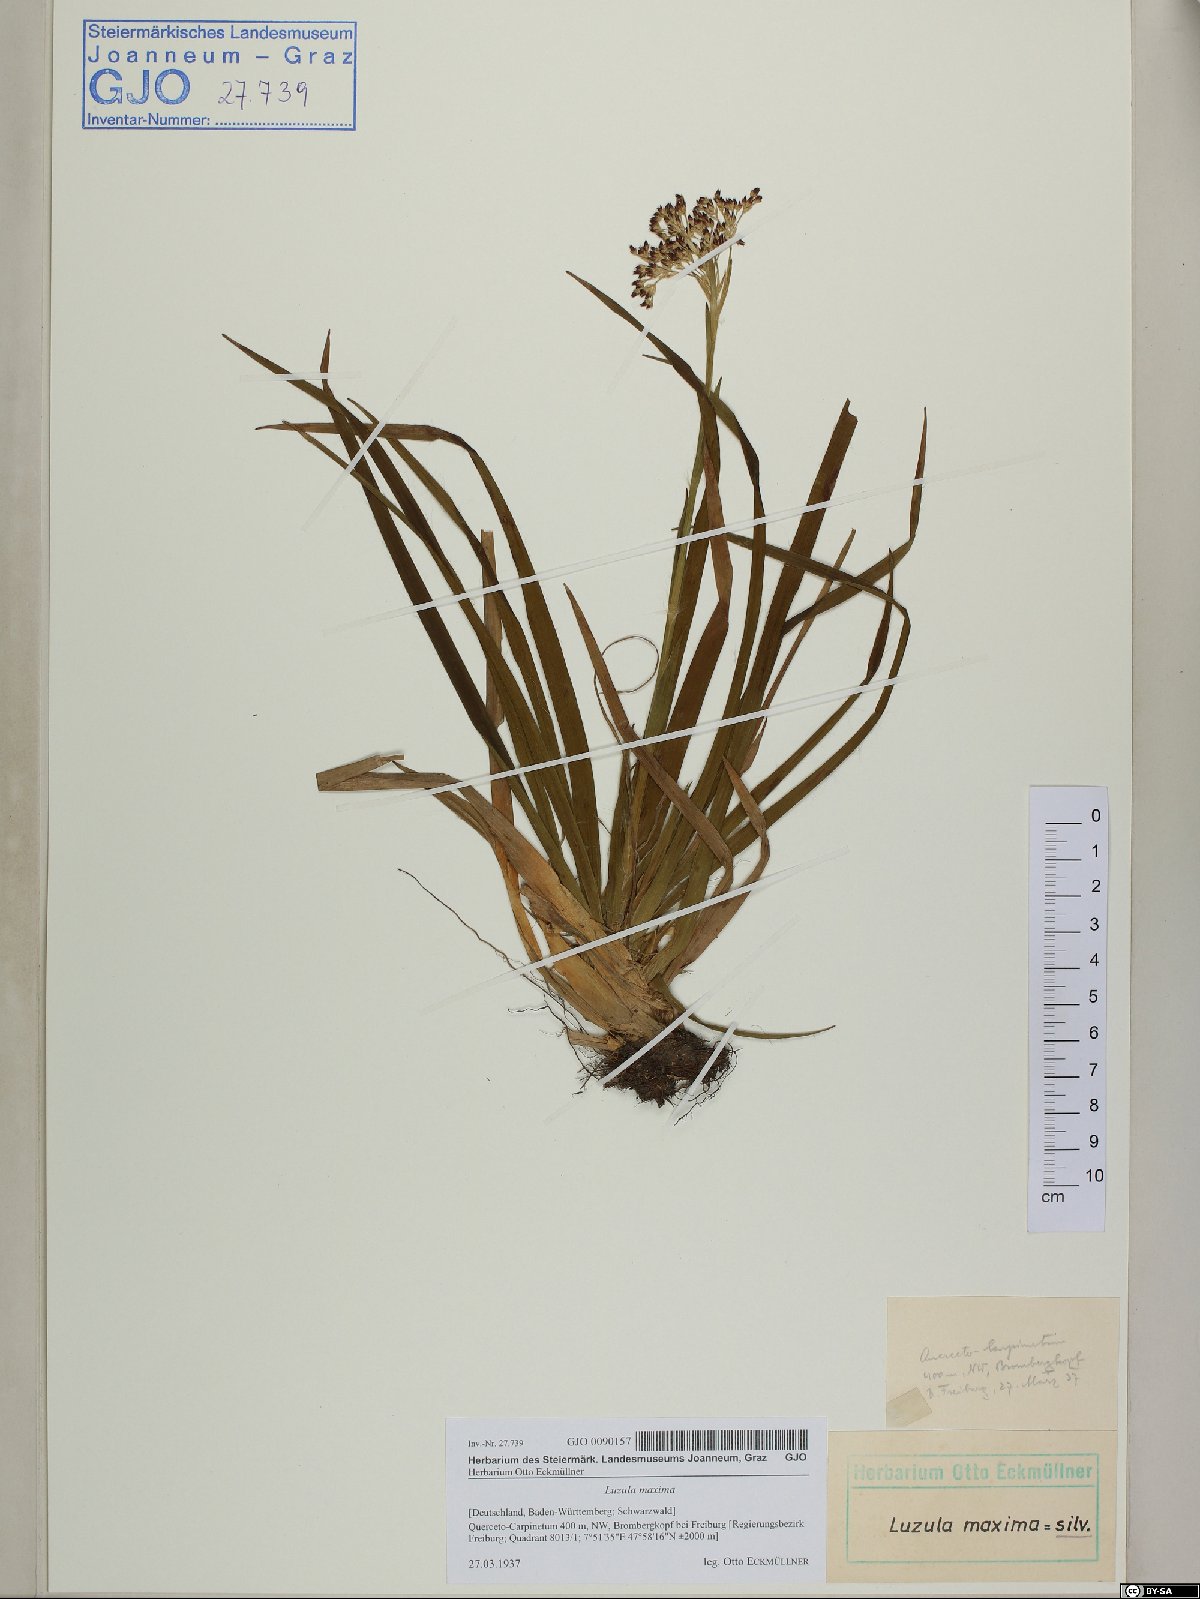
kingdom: Plantae
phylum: Tracheophyta
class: Liliopsida
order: Poales
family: Juncaceae
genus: Luzula
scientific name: Luzula sylvatica
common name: Great wood-rush
